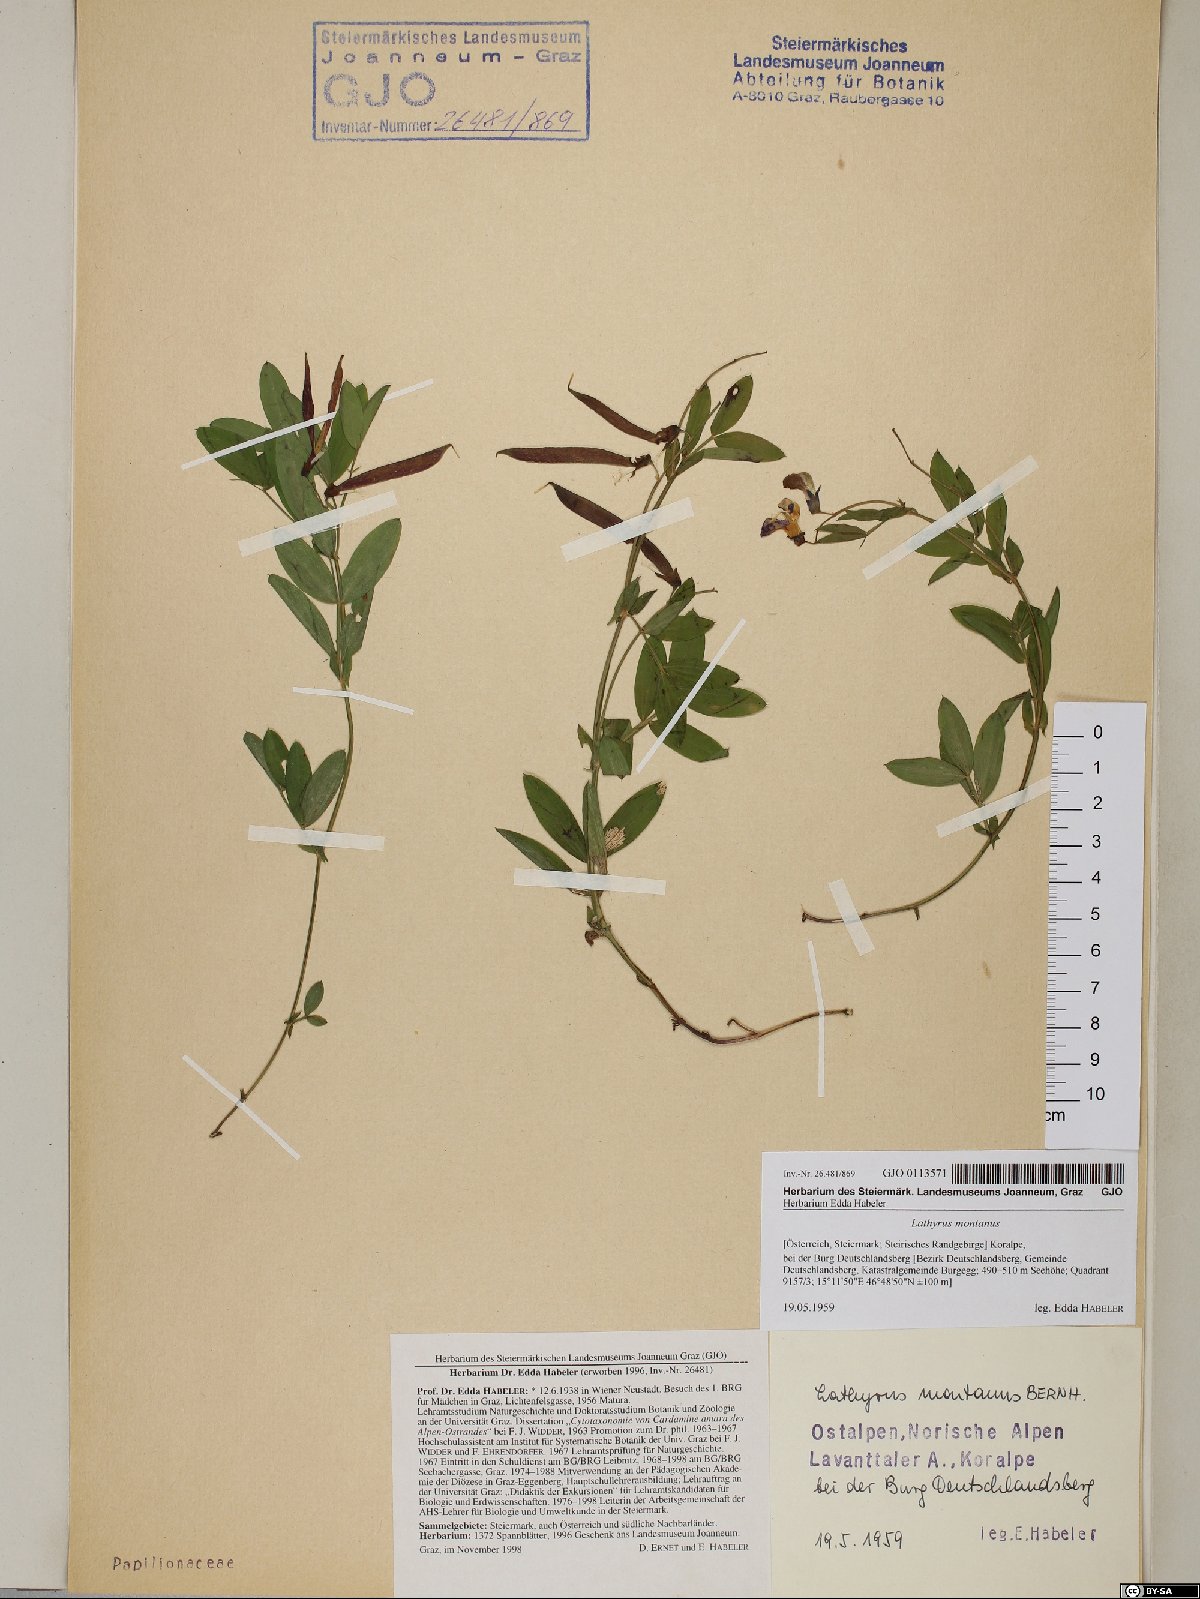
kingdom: Plantae
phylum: Tracheophyta
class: Magnoliopsida
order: Fabales
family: Fabaceae
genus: Lathyrus
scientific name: Lathyrus linifolius
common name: Bitter-vetch
